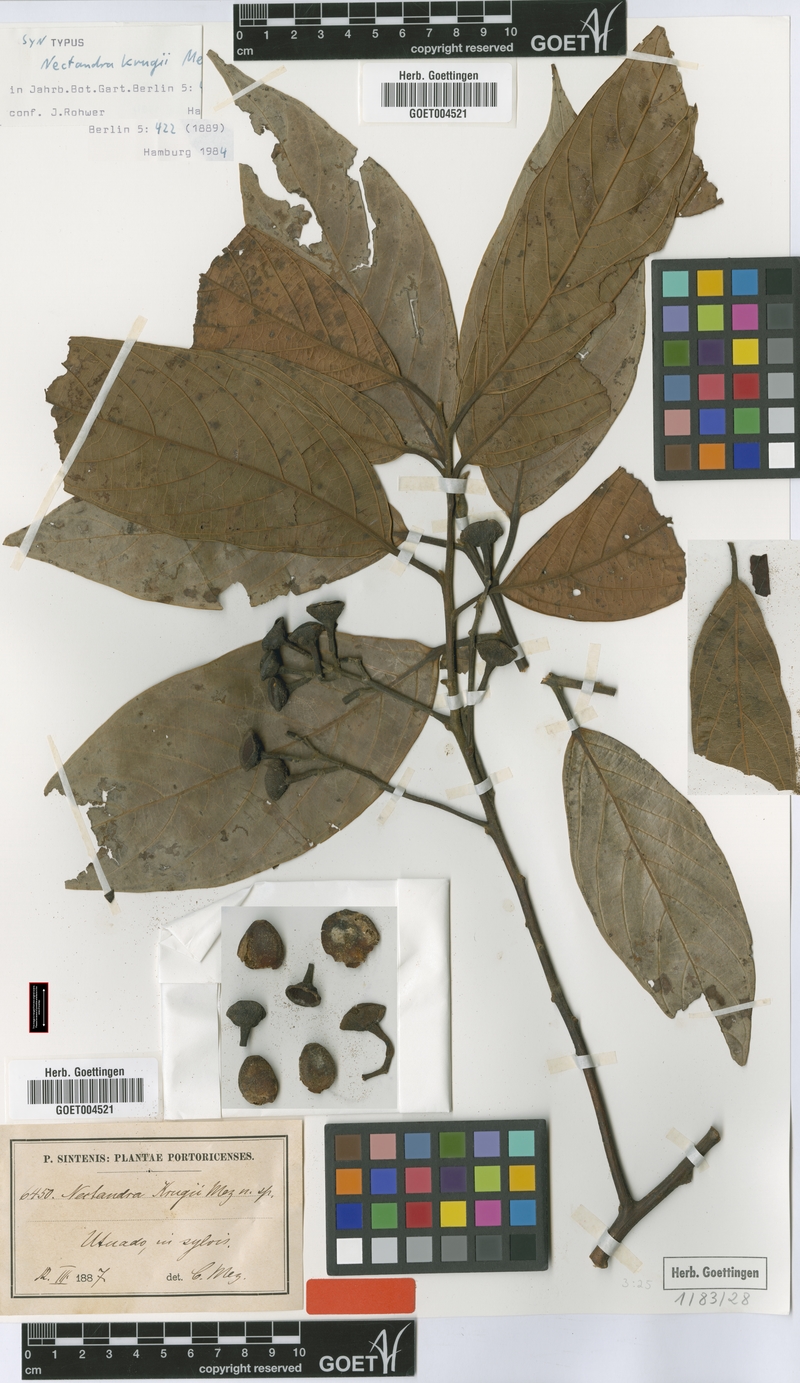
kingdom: Plantae
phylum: Tracheophyta
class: Magnoliopsida
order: Laurales
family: Lauraceae
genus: Nectandra
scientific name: Nectandra krugii
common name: Black sweetwood
